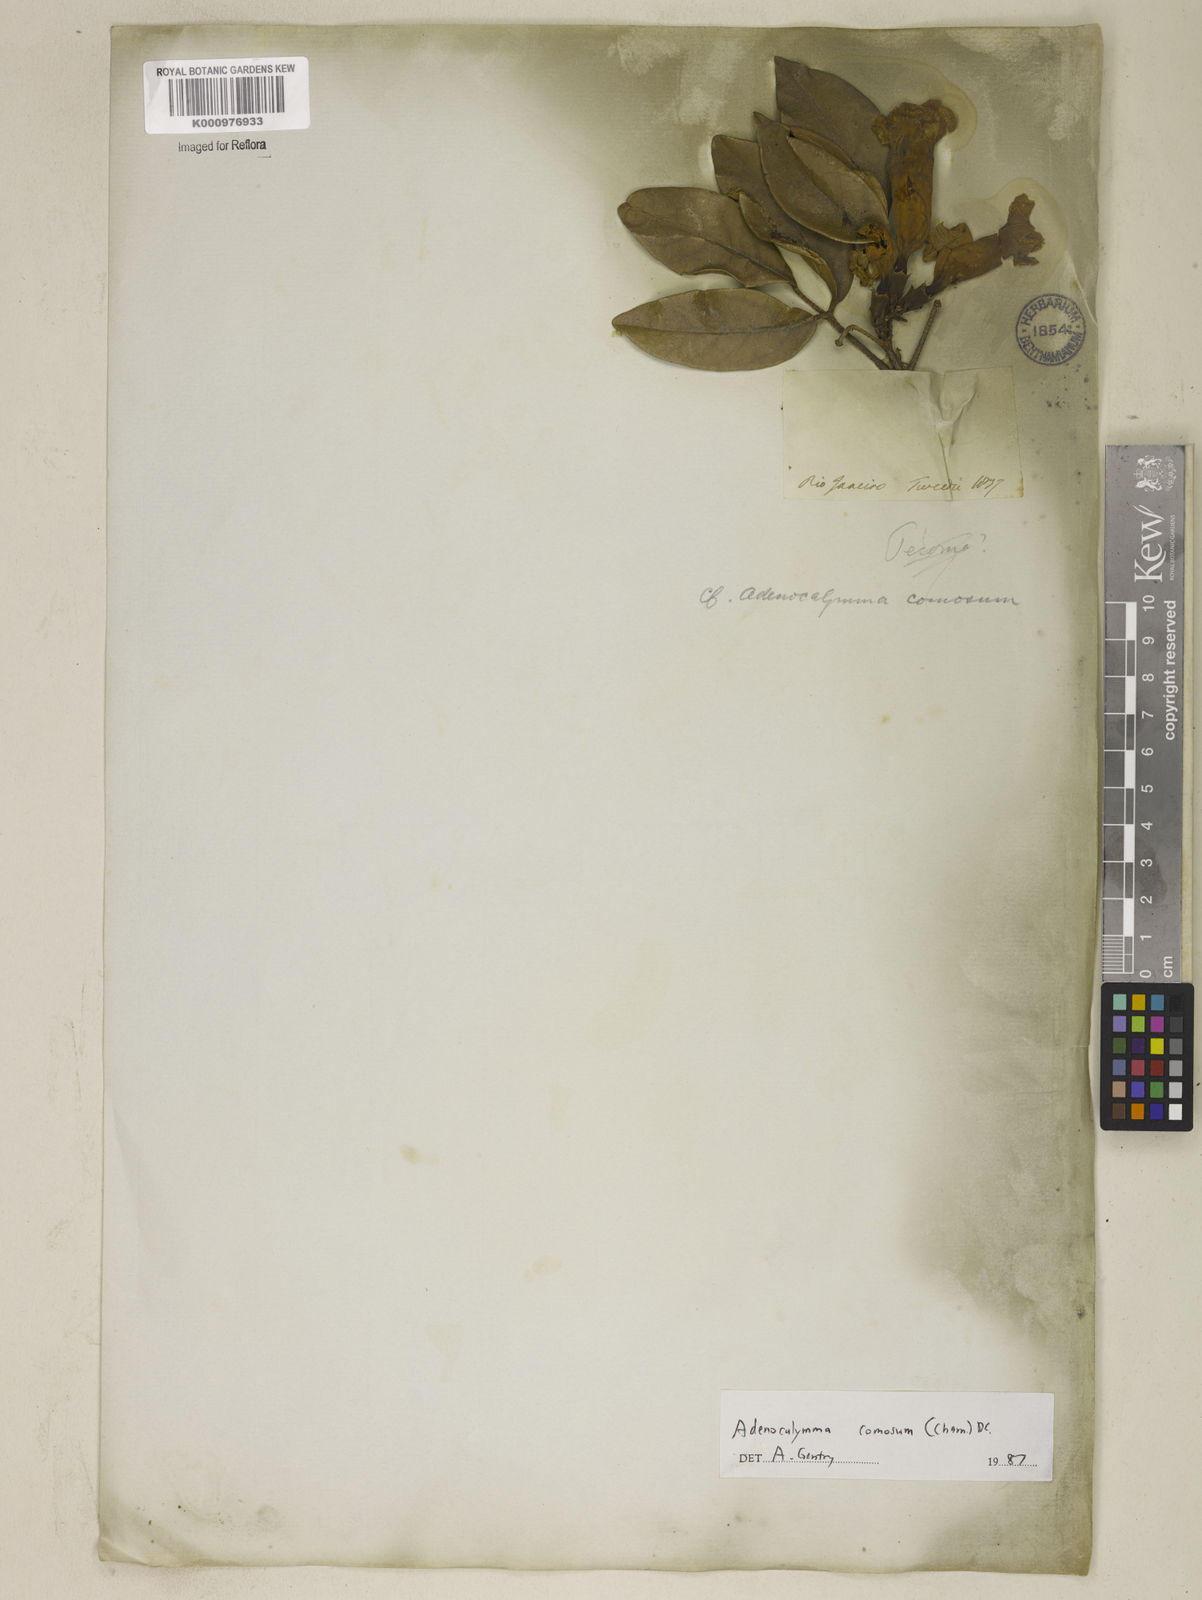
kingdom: Plantae
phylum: Tracheophyta
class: Magnoliopsida
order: Lamiales
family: Bignoniaceae
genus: Adenocalymma
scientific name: Adenocalymma acutissimum
